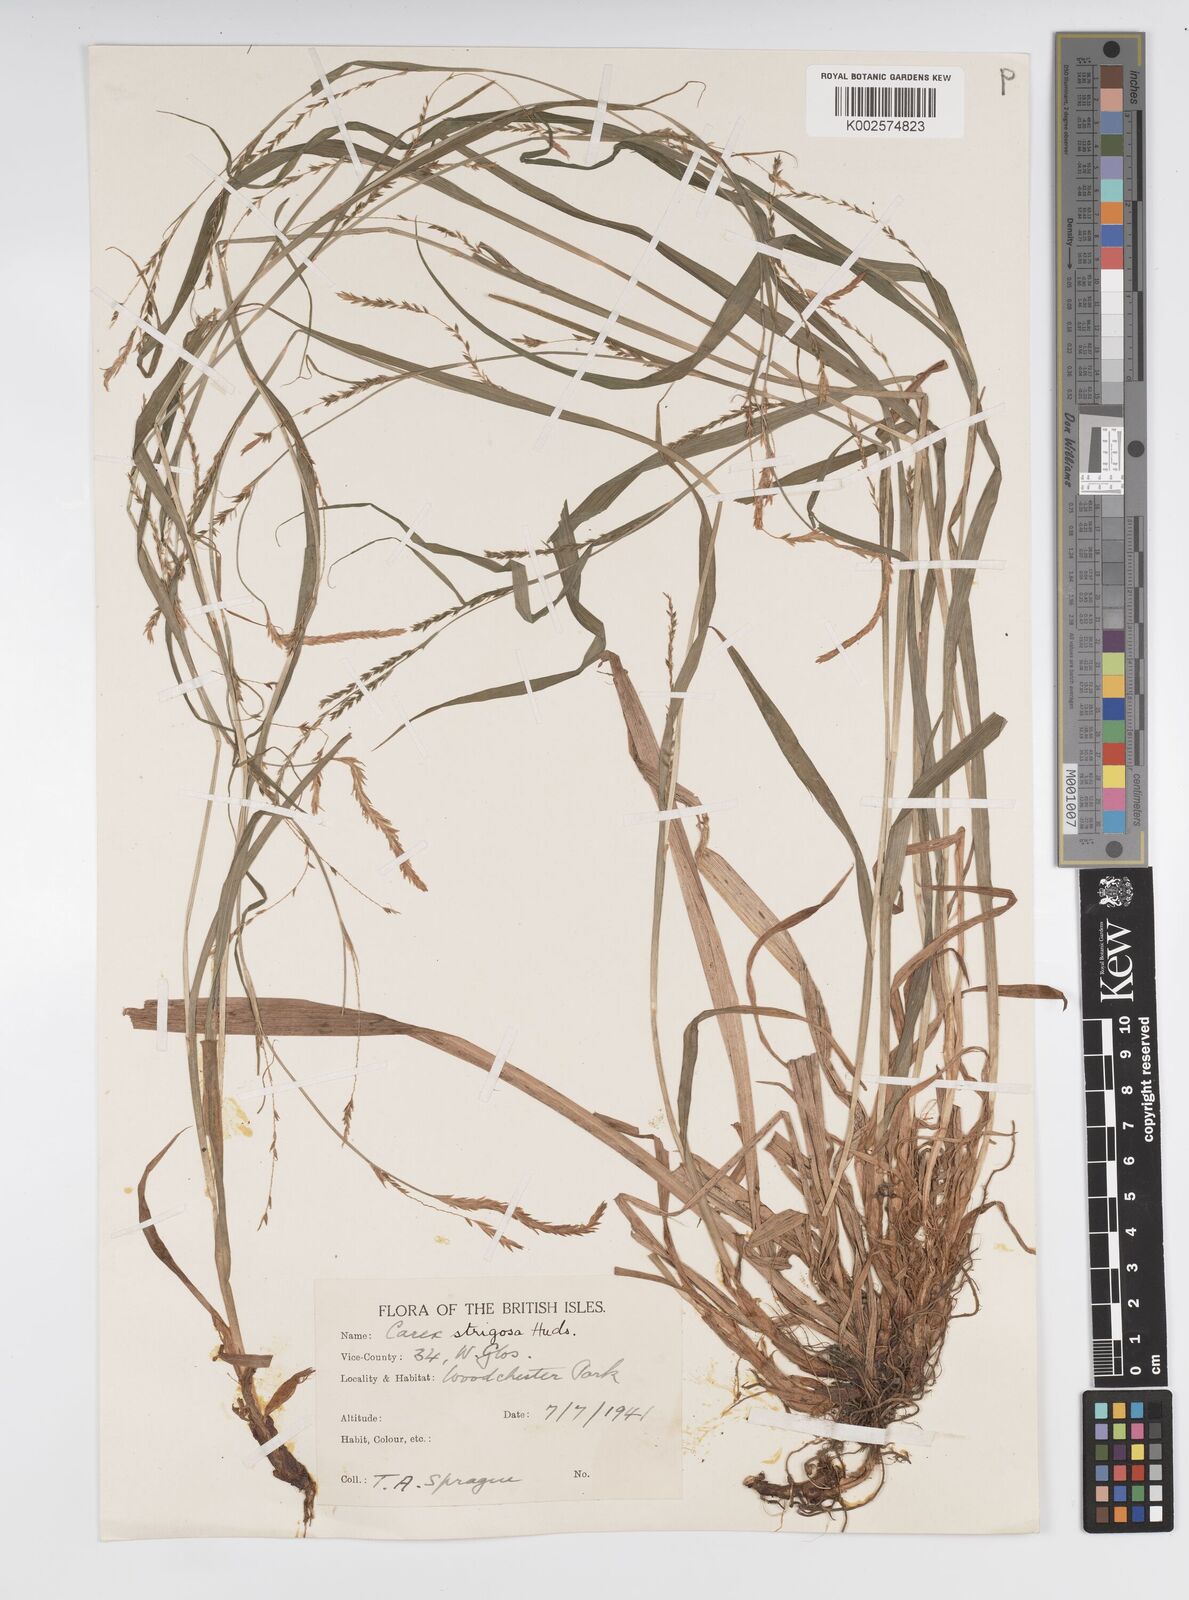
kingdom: Plantae
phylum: Tracheophyta
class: Liliopsida
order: Poales
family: Cyperaceae
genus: Carex
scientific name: Carex strigosa
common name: Thin-spiked wood-sedge
